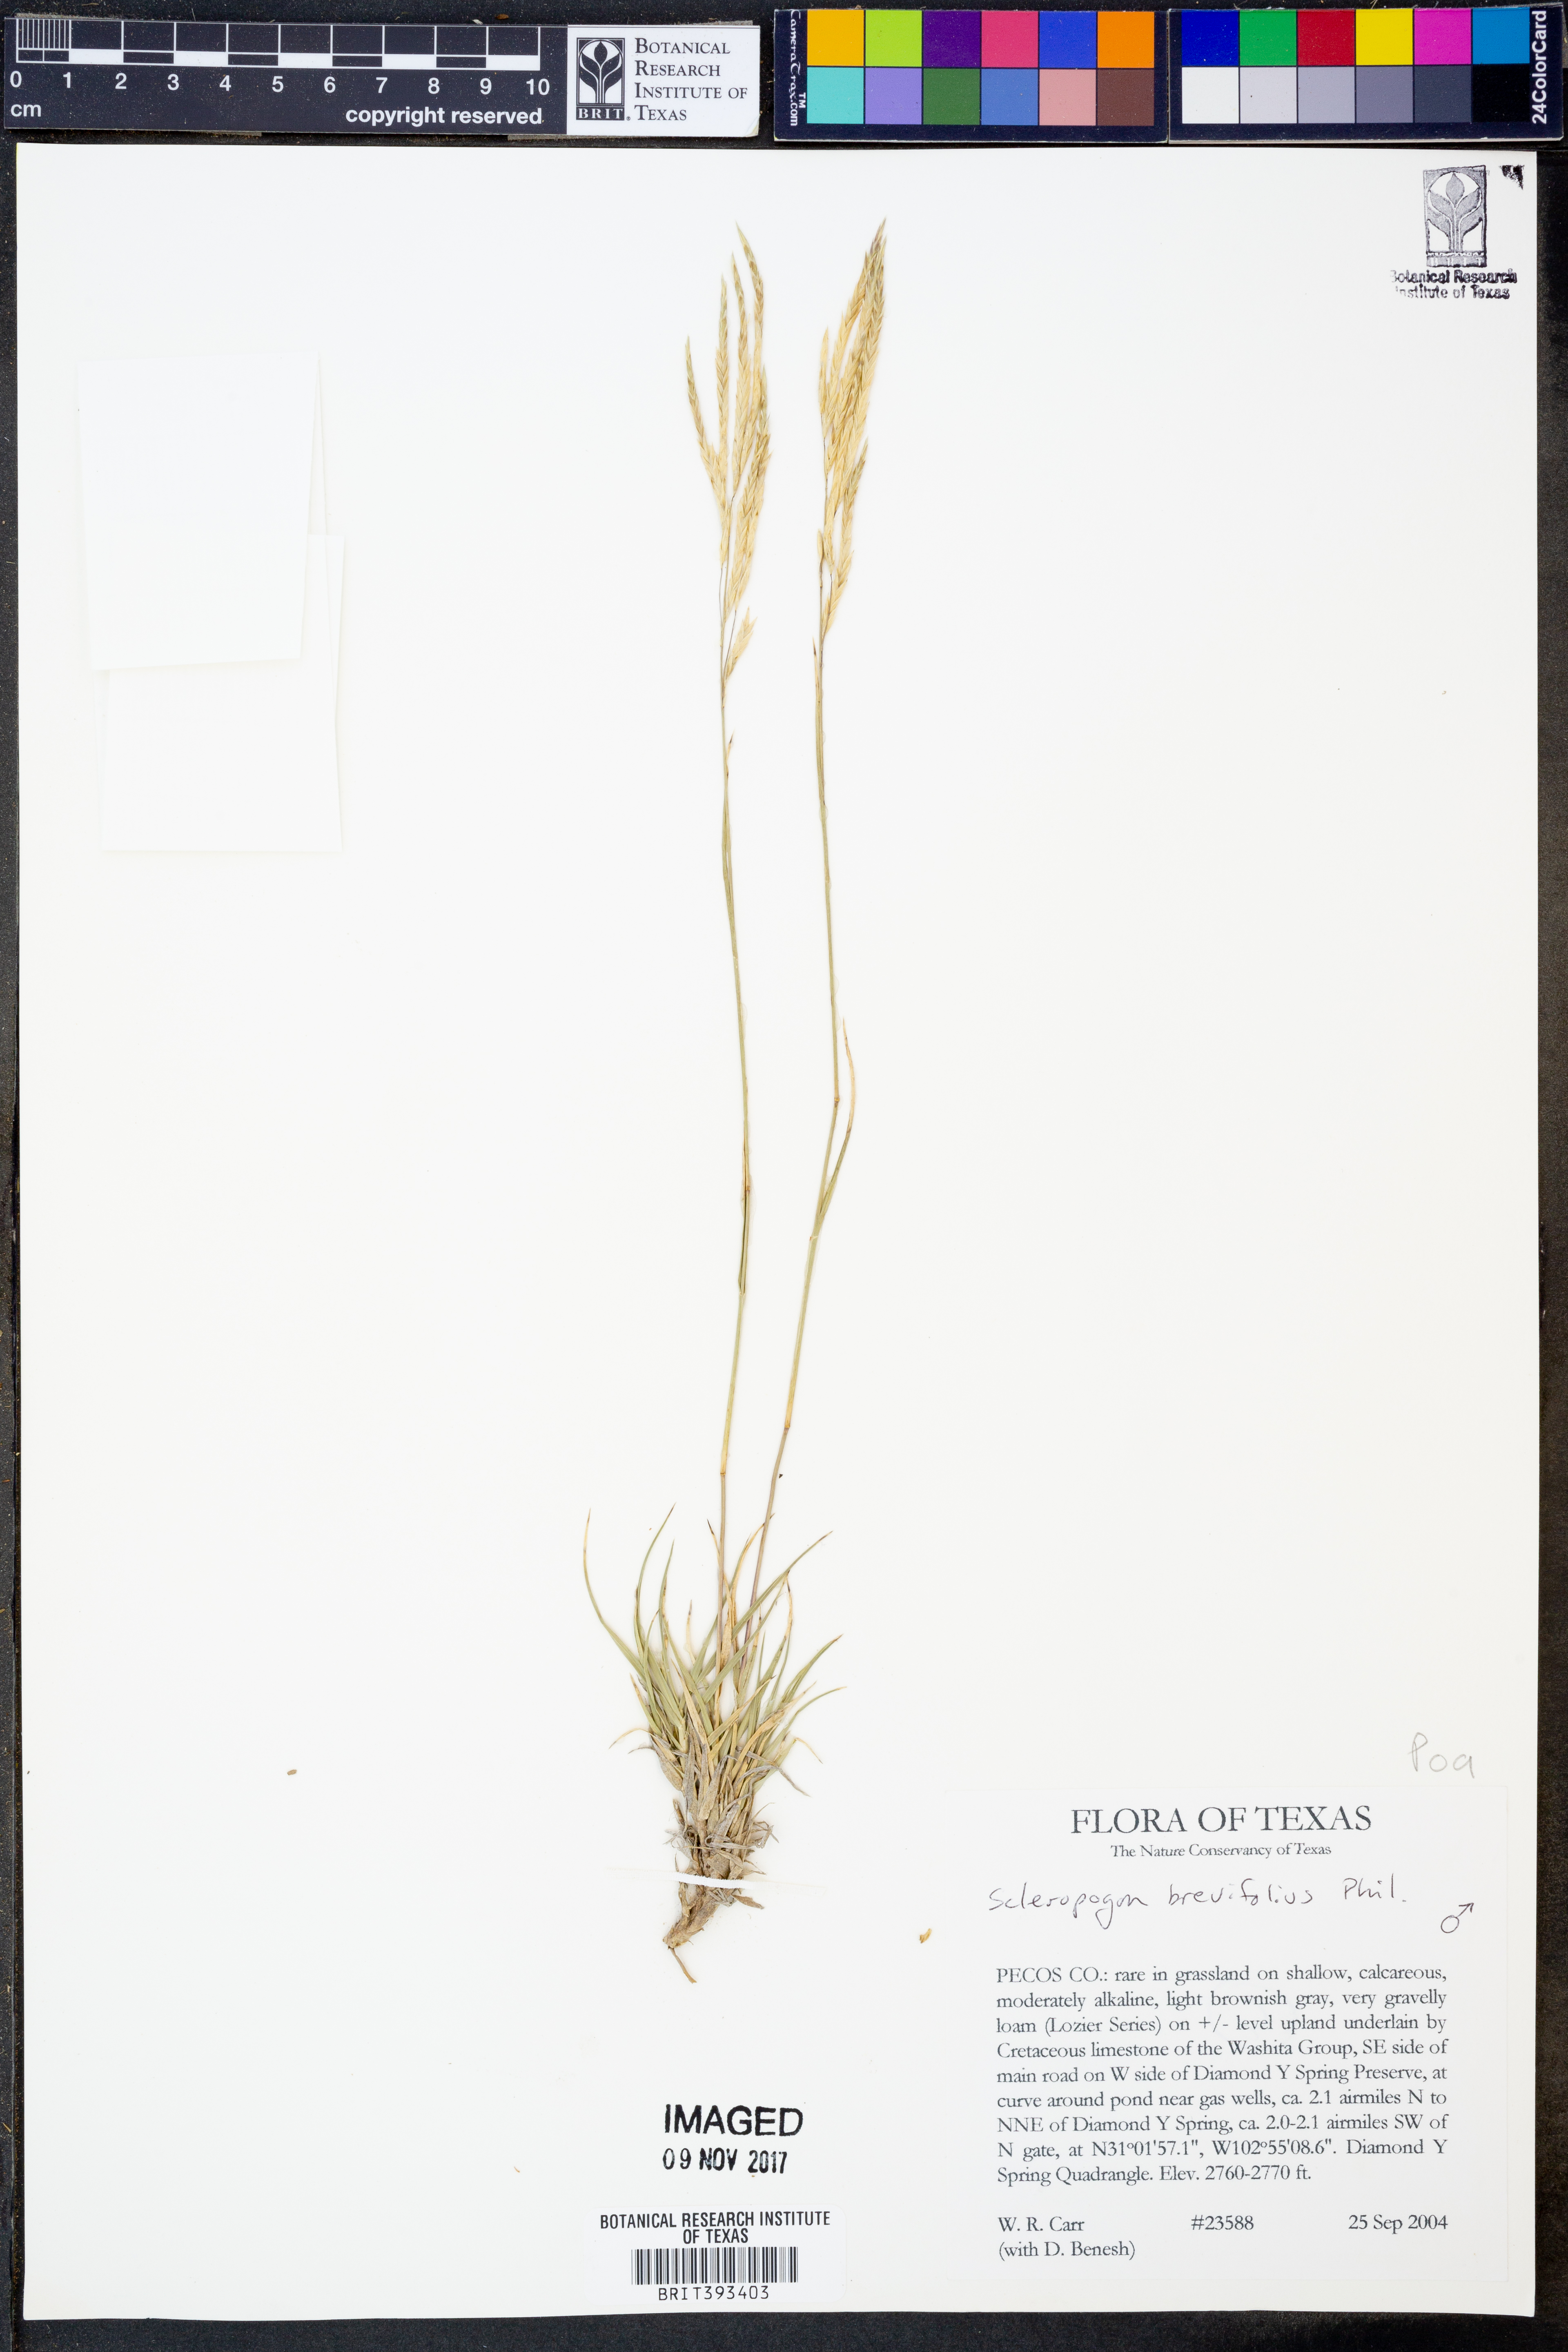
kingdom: Plantae
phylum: Tracheophyta
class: Liliopsida
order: Poales
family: Poaceae
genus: Scleropogon
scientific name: Scleropogon brevifolius
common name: Burro grass
